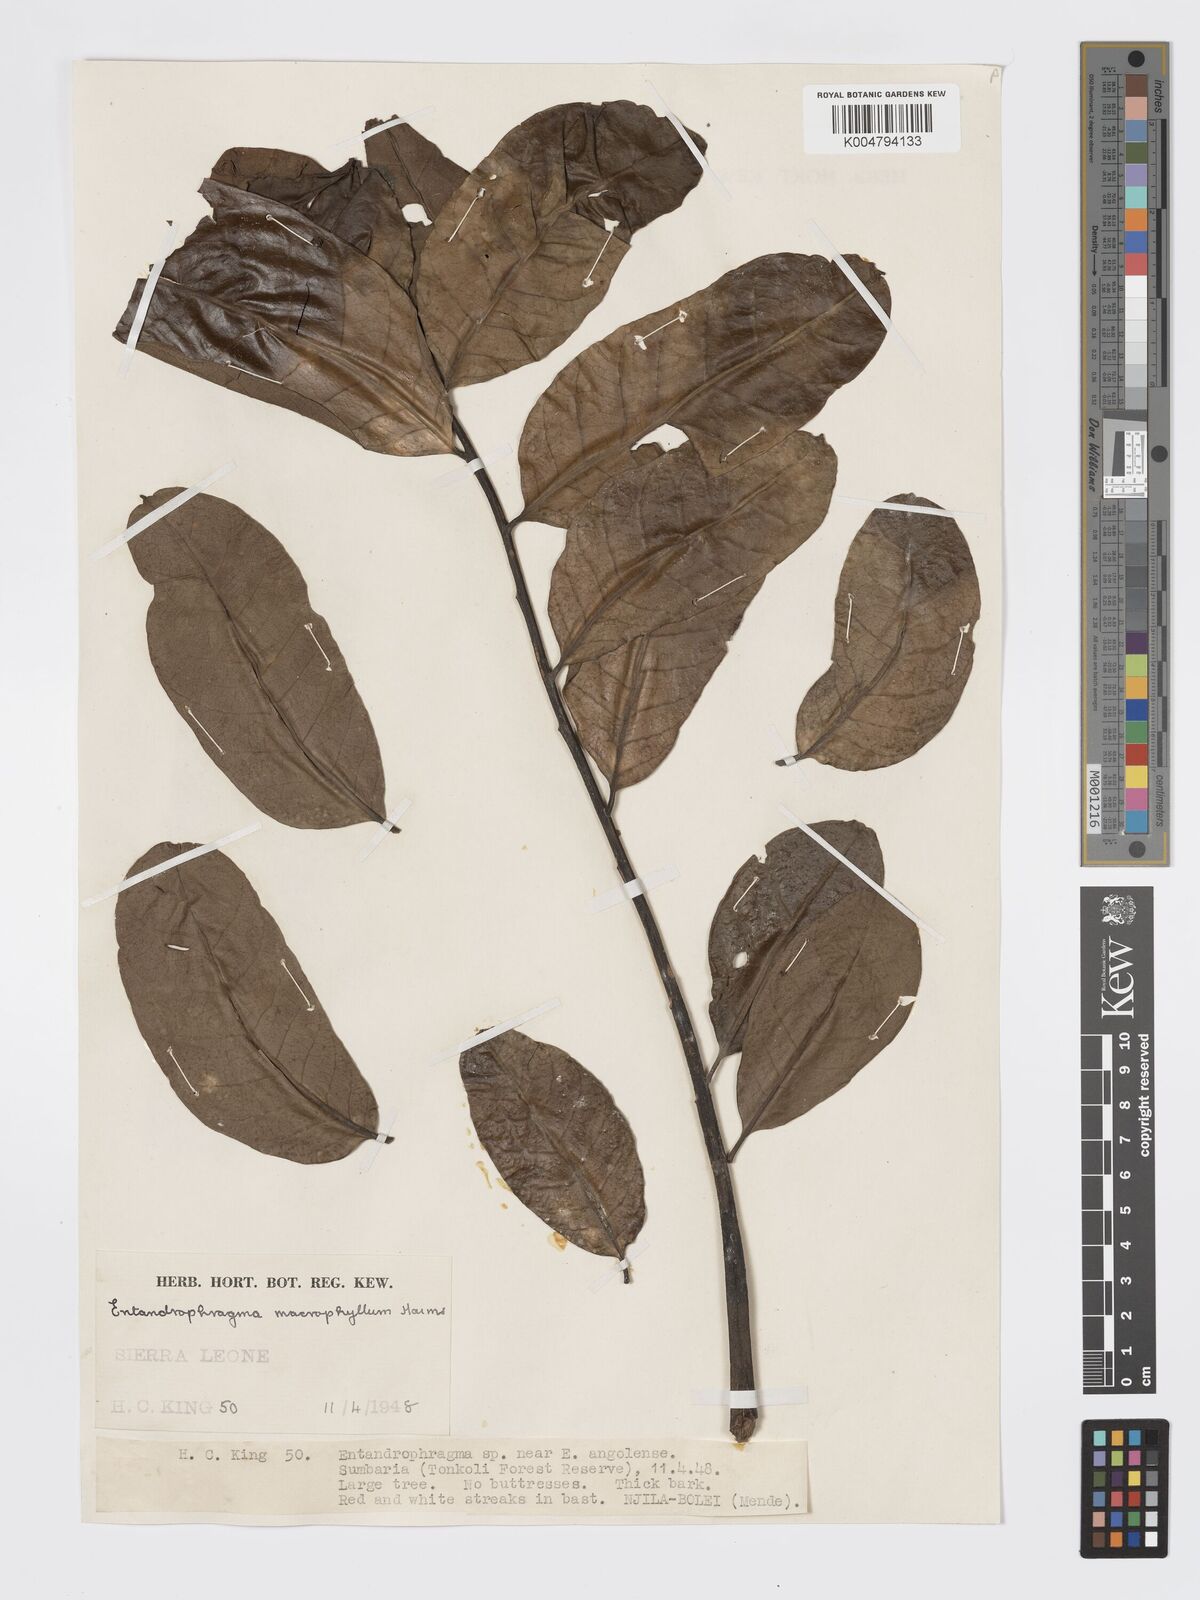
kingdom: Plantae
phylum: Tracheophyta
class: Magnoliopsida
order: Sapindales
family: Meliaceae
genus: Entandrophragma
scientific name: Entandrophragma angolense
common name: African mahogany
